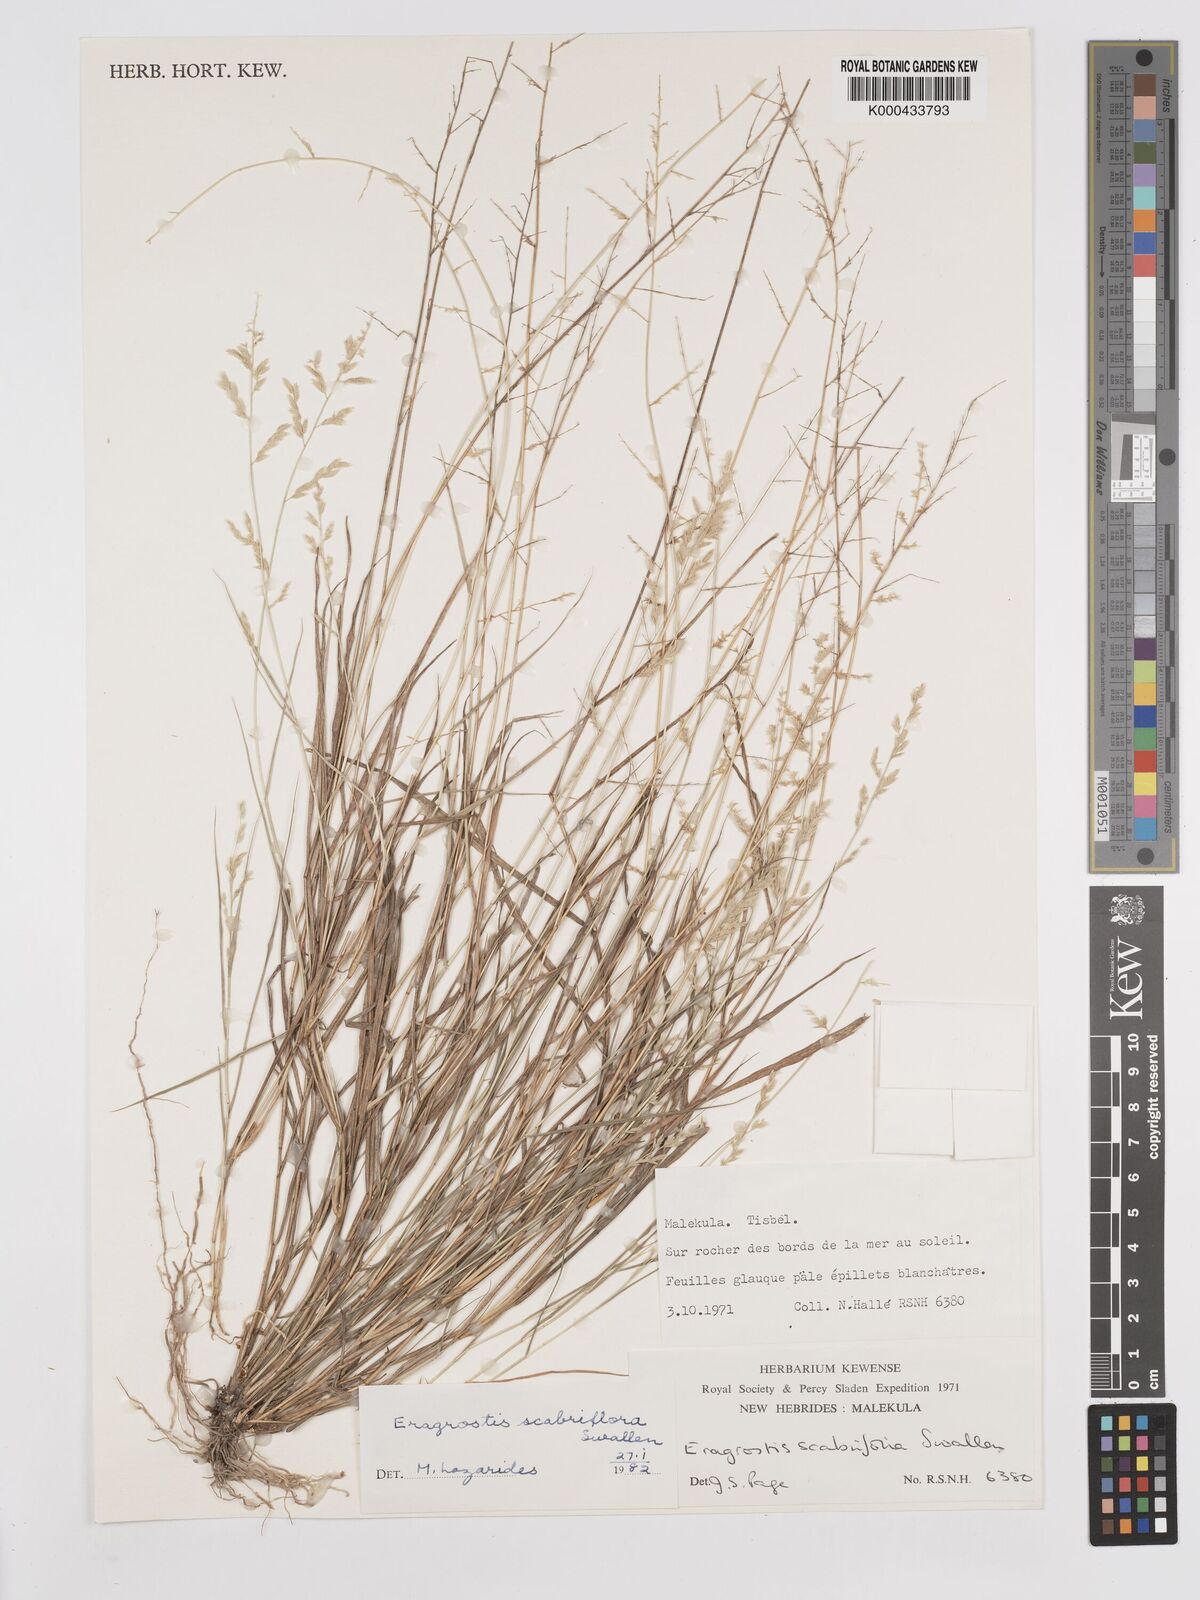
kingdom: Plantae
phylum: Tracheophyta
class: Liliopsida
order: Poales
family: Poaceae
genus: Eragrostis
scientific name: Eragrostis scabriflora
